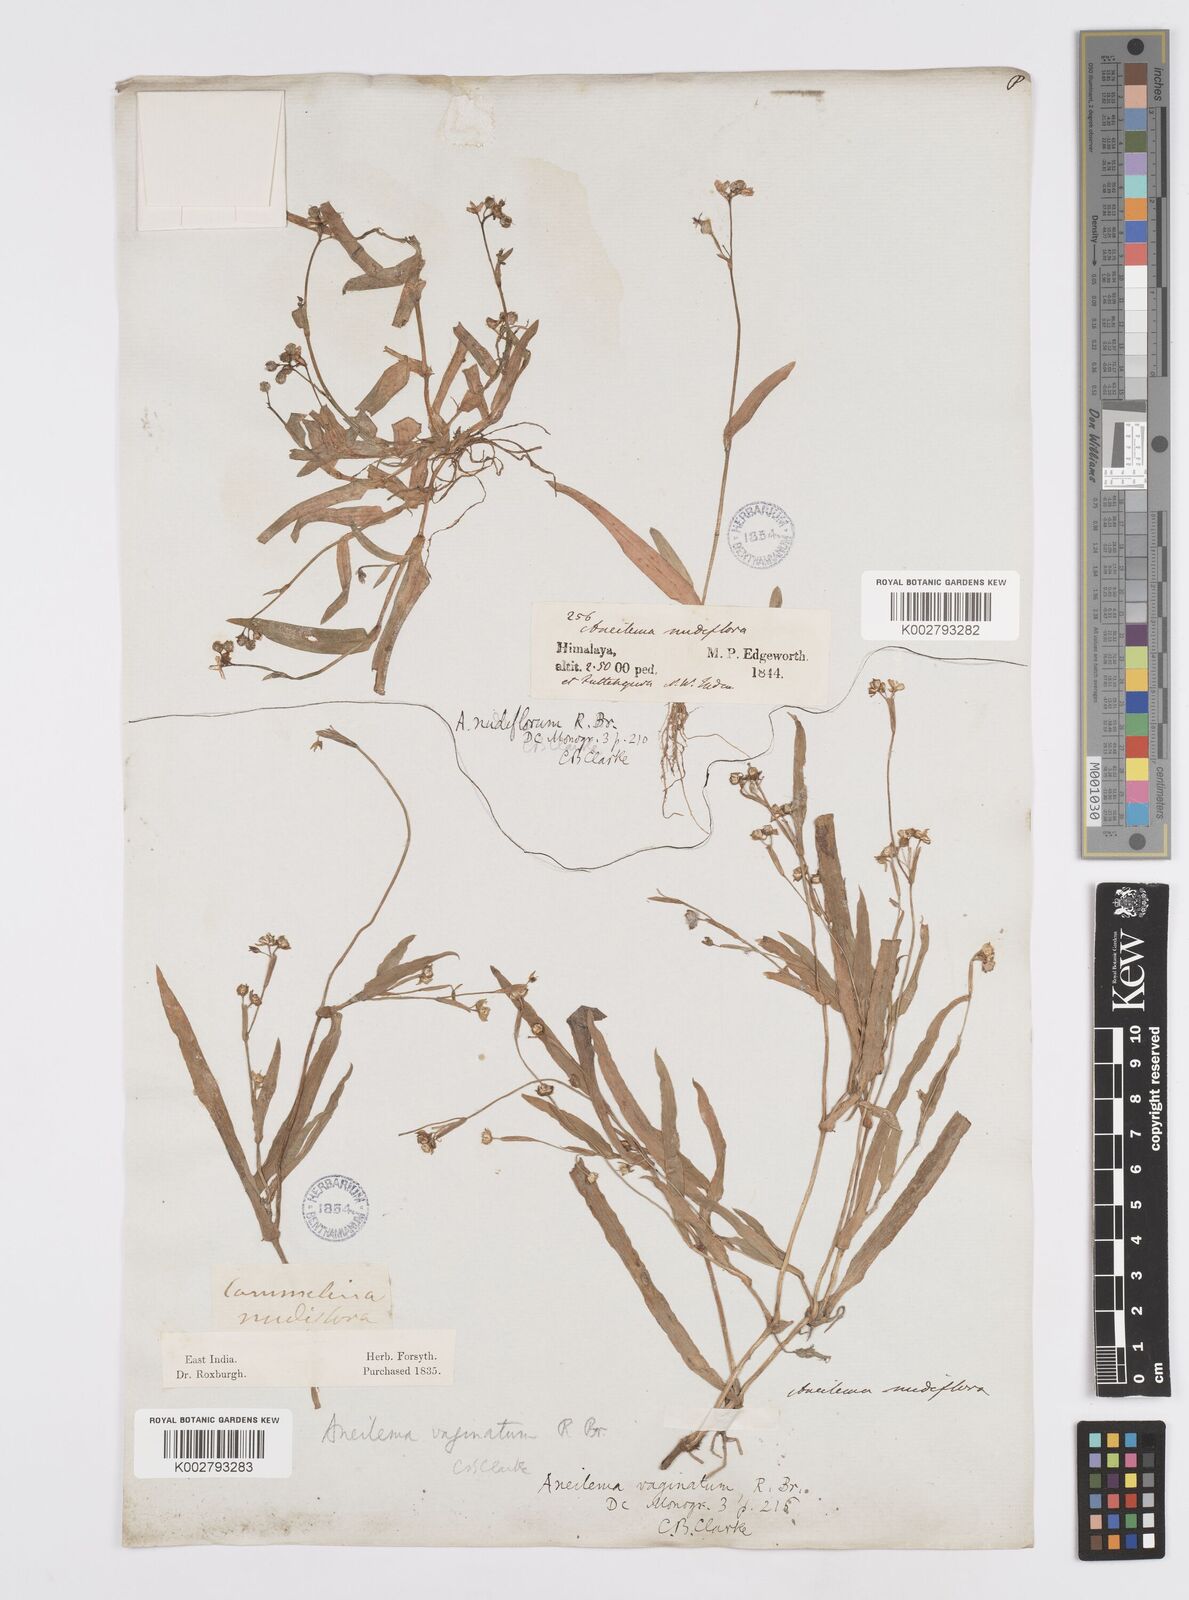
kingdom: Plantae
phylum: Tracheophyta
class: Liliopsida
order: Commelinales
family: Commelinaceae
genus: Murdannia
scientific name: Murdannia
